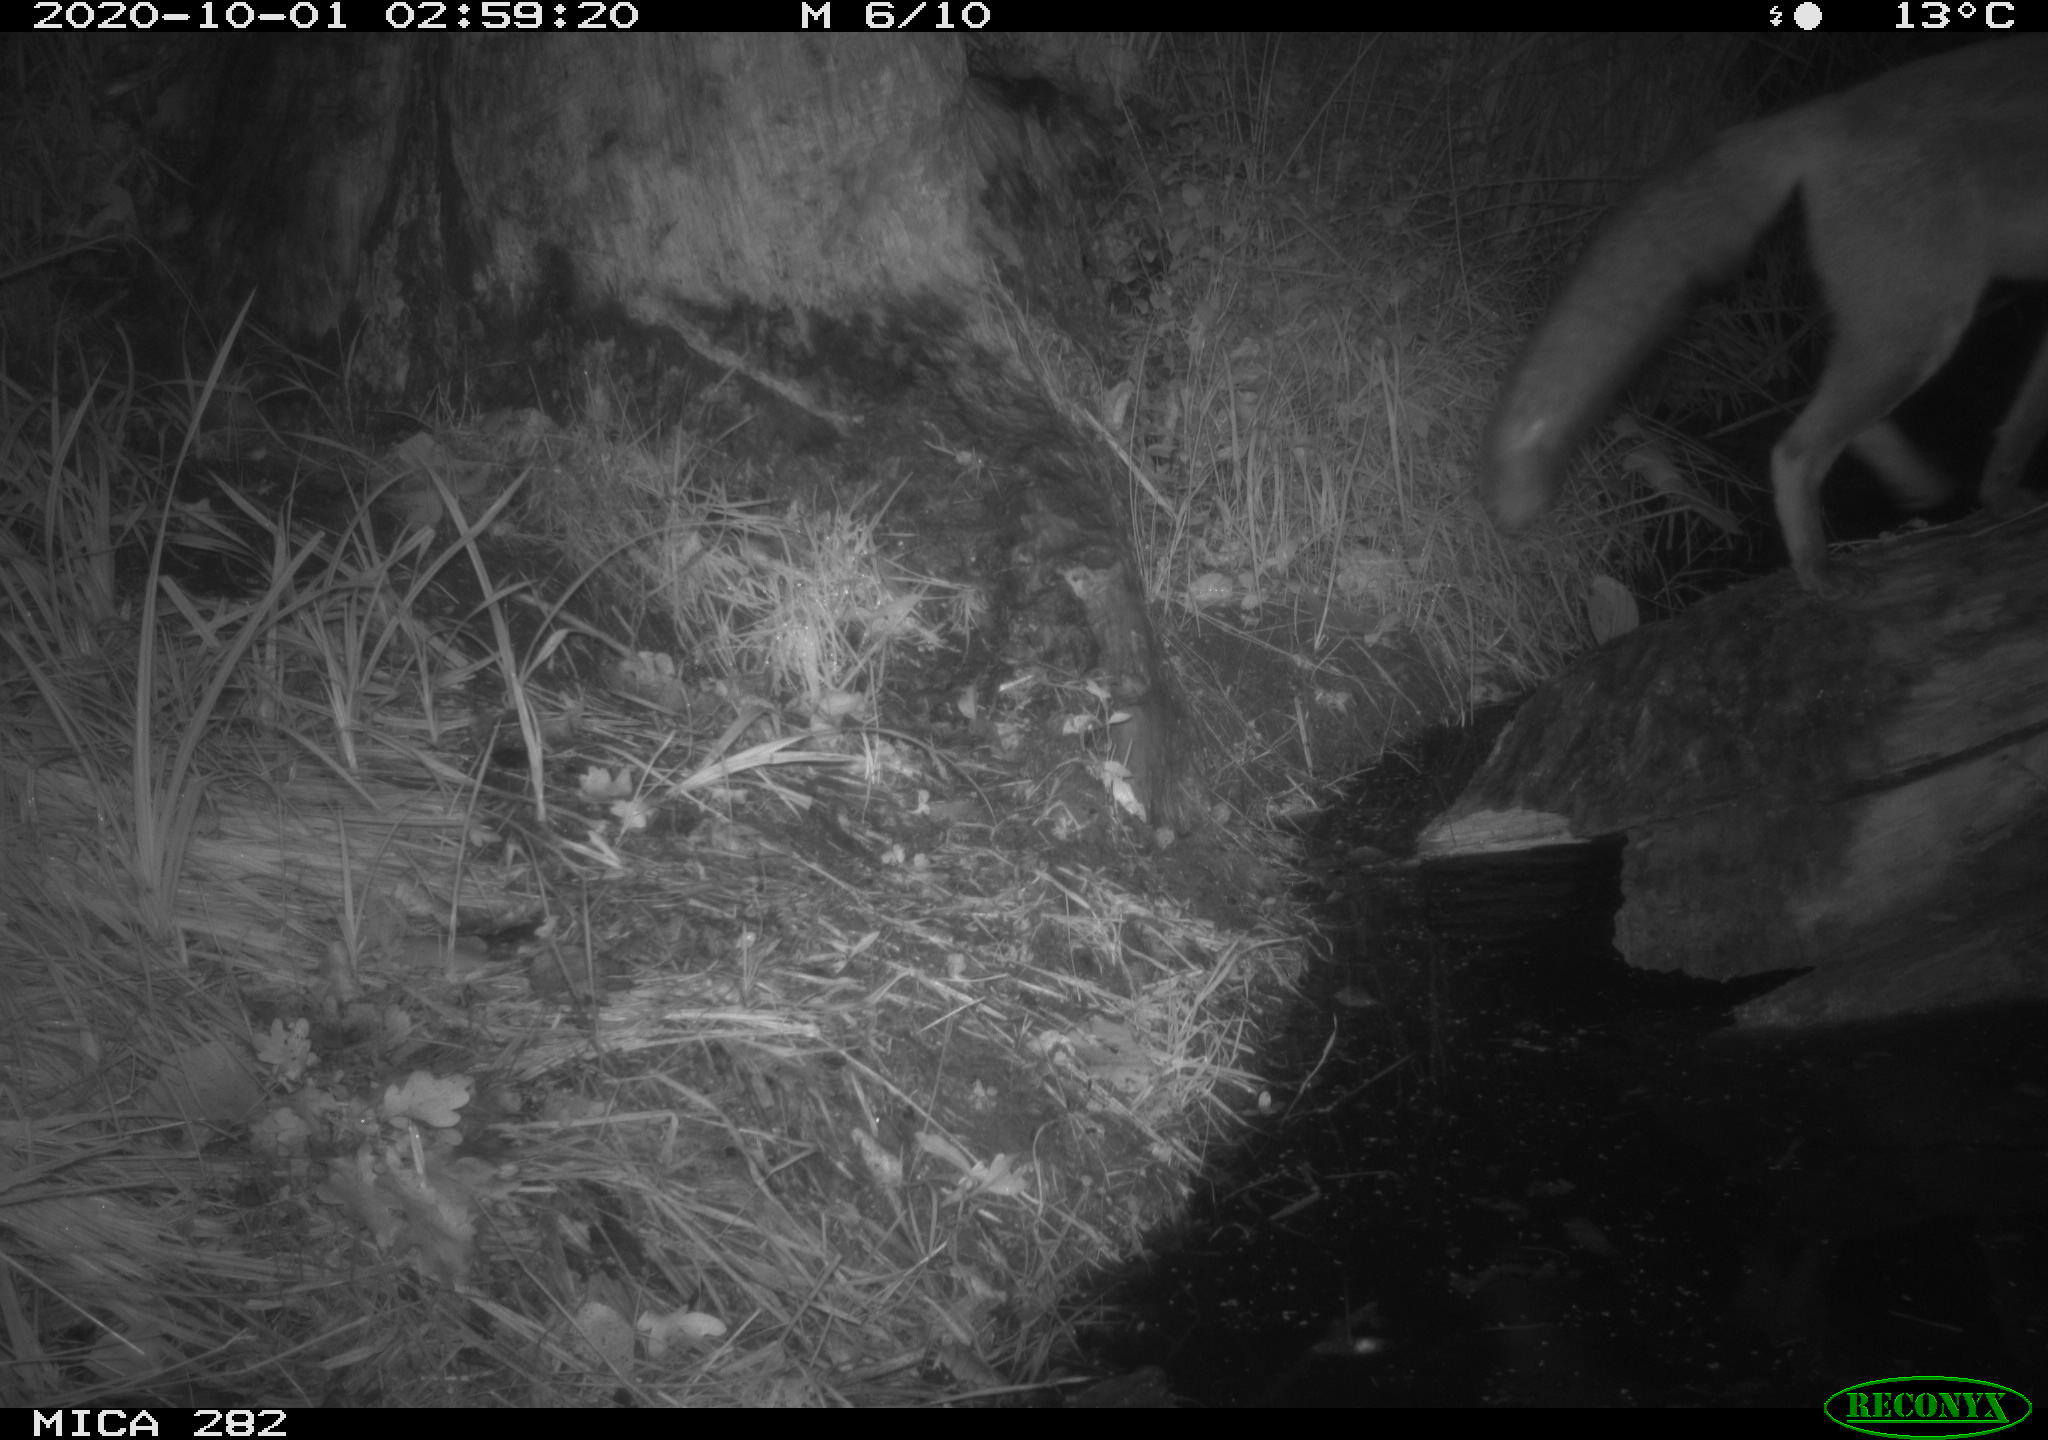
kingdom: Animalia
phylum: Chordata
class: Mammalia
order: Carnivora
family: Canidae
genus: Vulpes
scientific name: Vulpes vulpes
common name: Red fox
